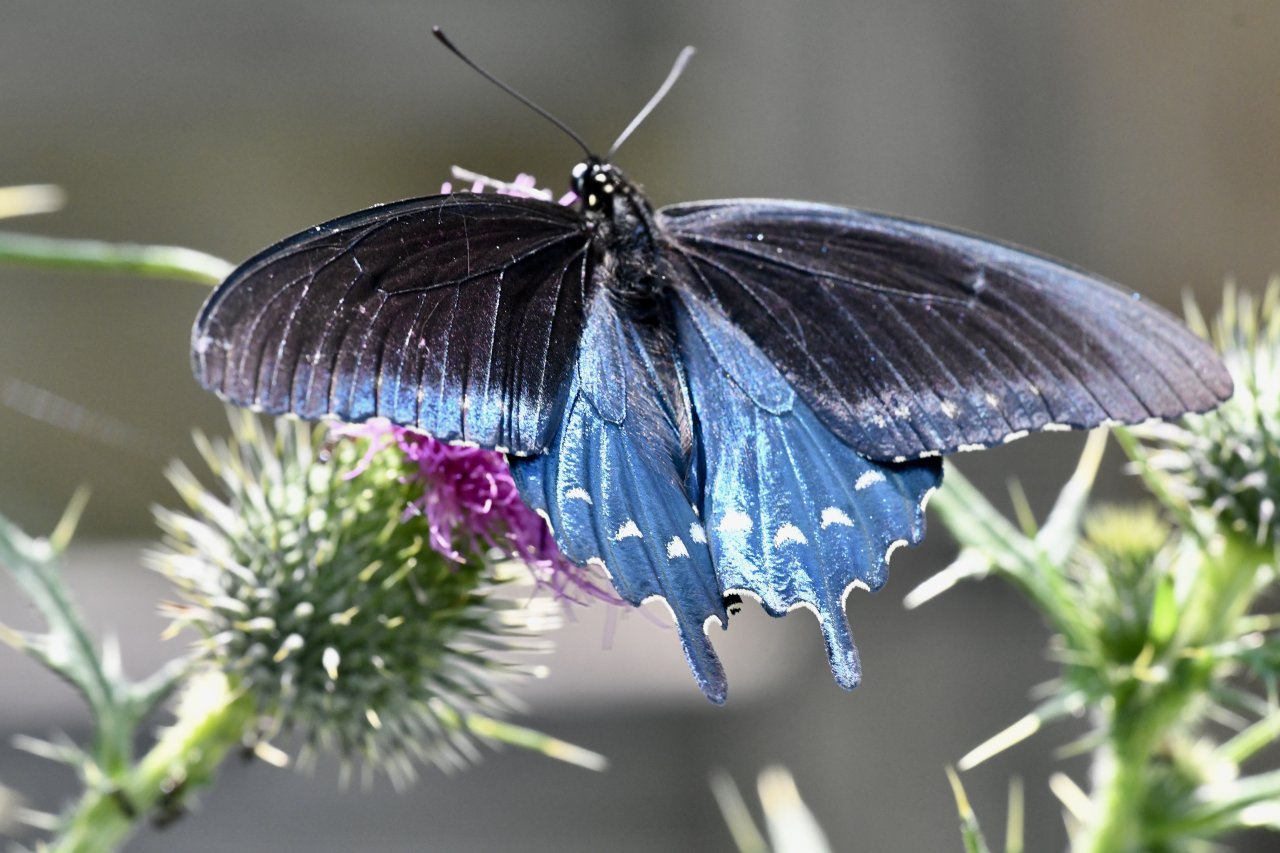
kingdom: Animalia
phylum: Arthropoda
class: Insecta
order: Lepidoptera
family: Papilionidae
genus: Battus
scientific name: Battus philenor
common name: Pipevine Swallowtail
